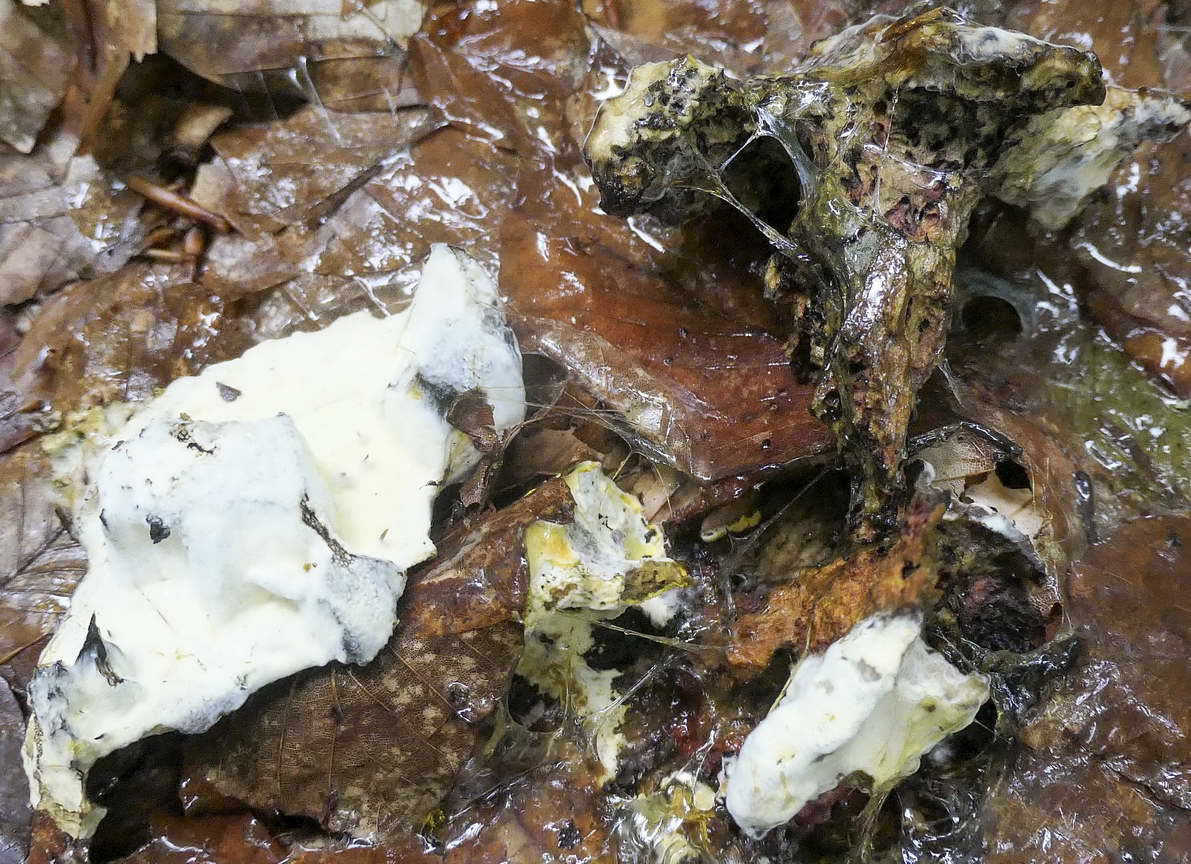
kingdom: Fungi
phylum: Ascomycota
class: Sordariomycetes
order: Hypocreales
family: Hypocreaceae
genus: Hypomyces
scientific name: Hypomyces
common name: snylteskorpe
